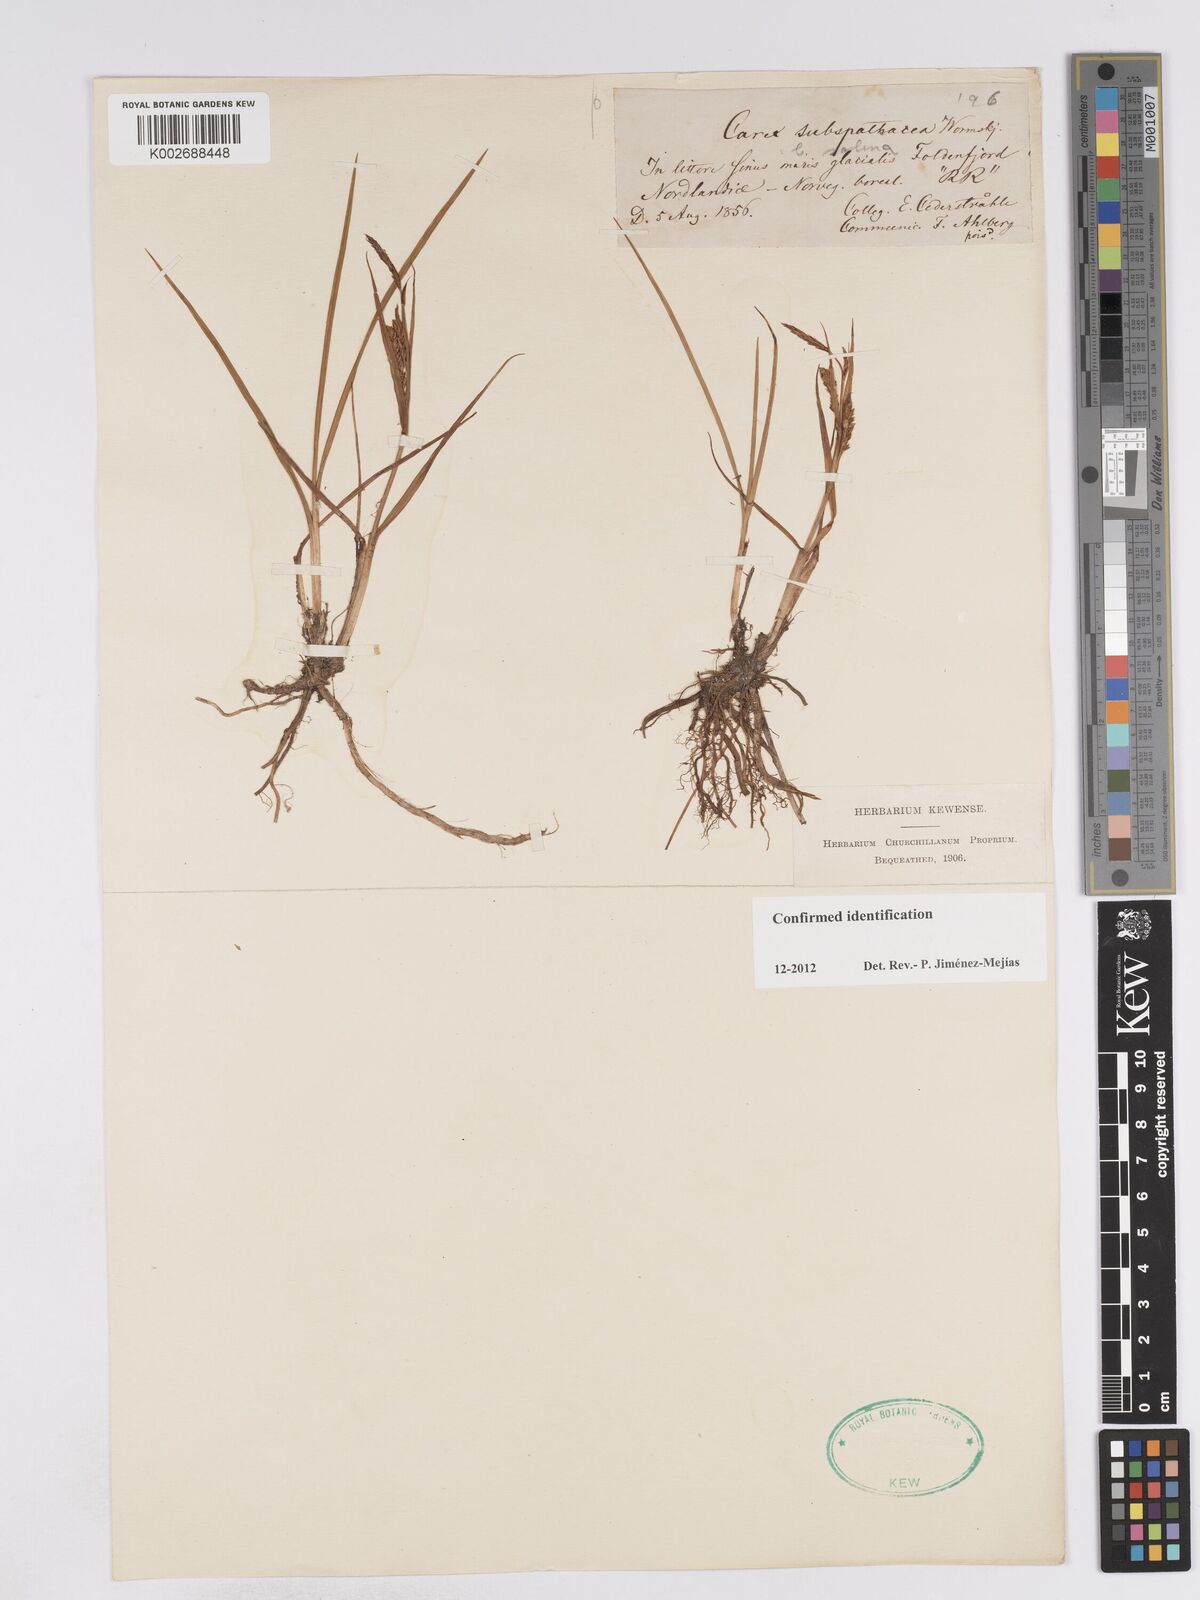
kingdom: Plantae
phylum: Tracheophyta
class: Liliopsida
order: Poales
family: Cyperaceae
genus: Carex
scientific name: Carex subspathacea
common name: Hoppner's sedge
